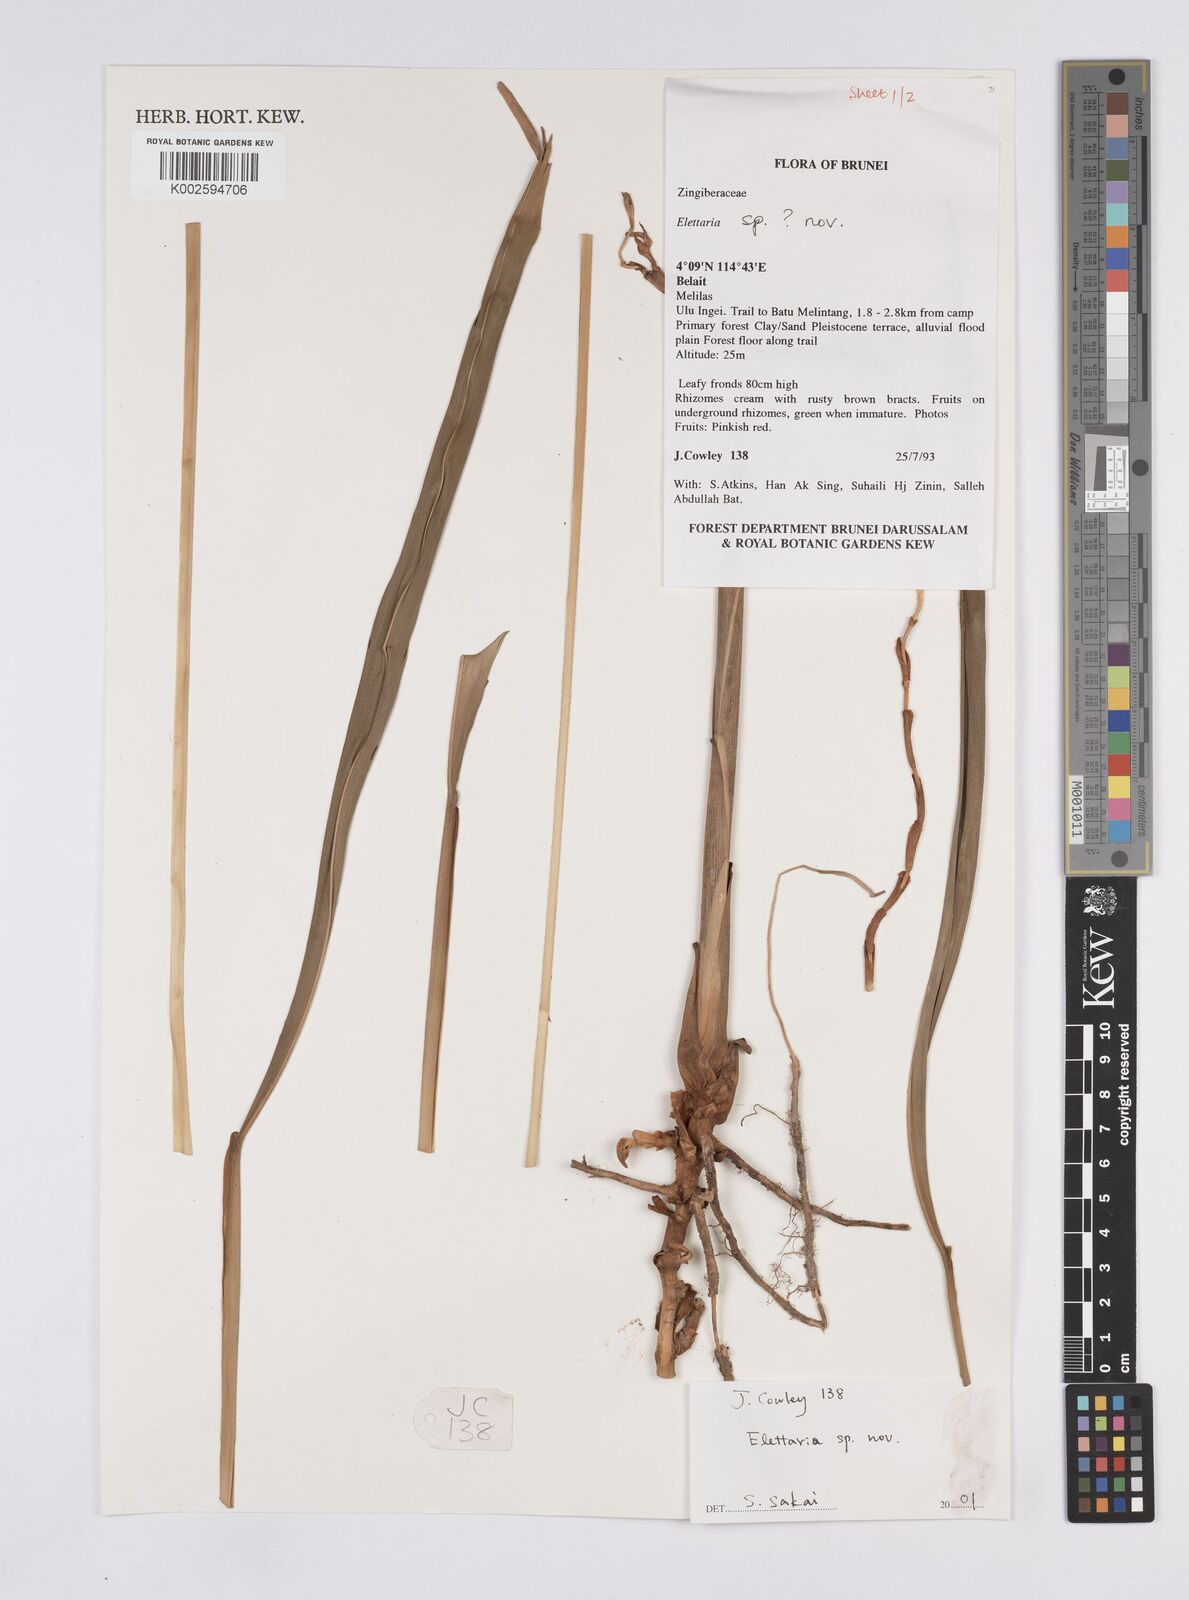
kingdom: Plantae
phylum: Tracheophyta
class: Liliopsida
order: Zingiberales
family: Zingiberaceae
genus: Elettaria
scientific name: Elettaria
